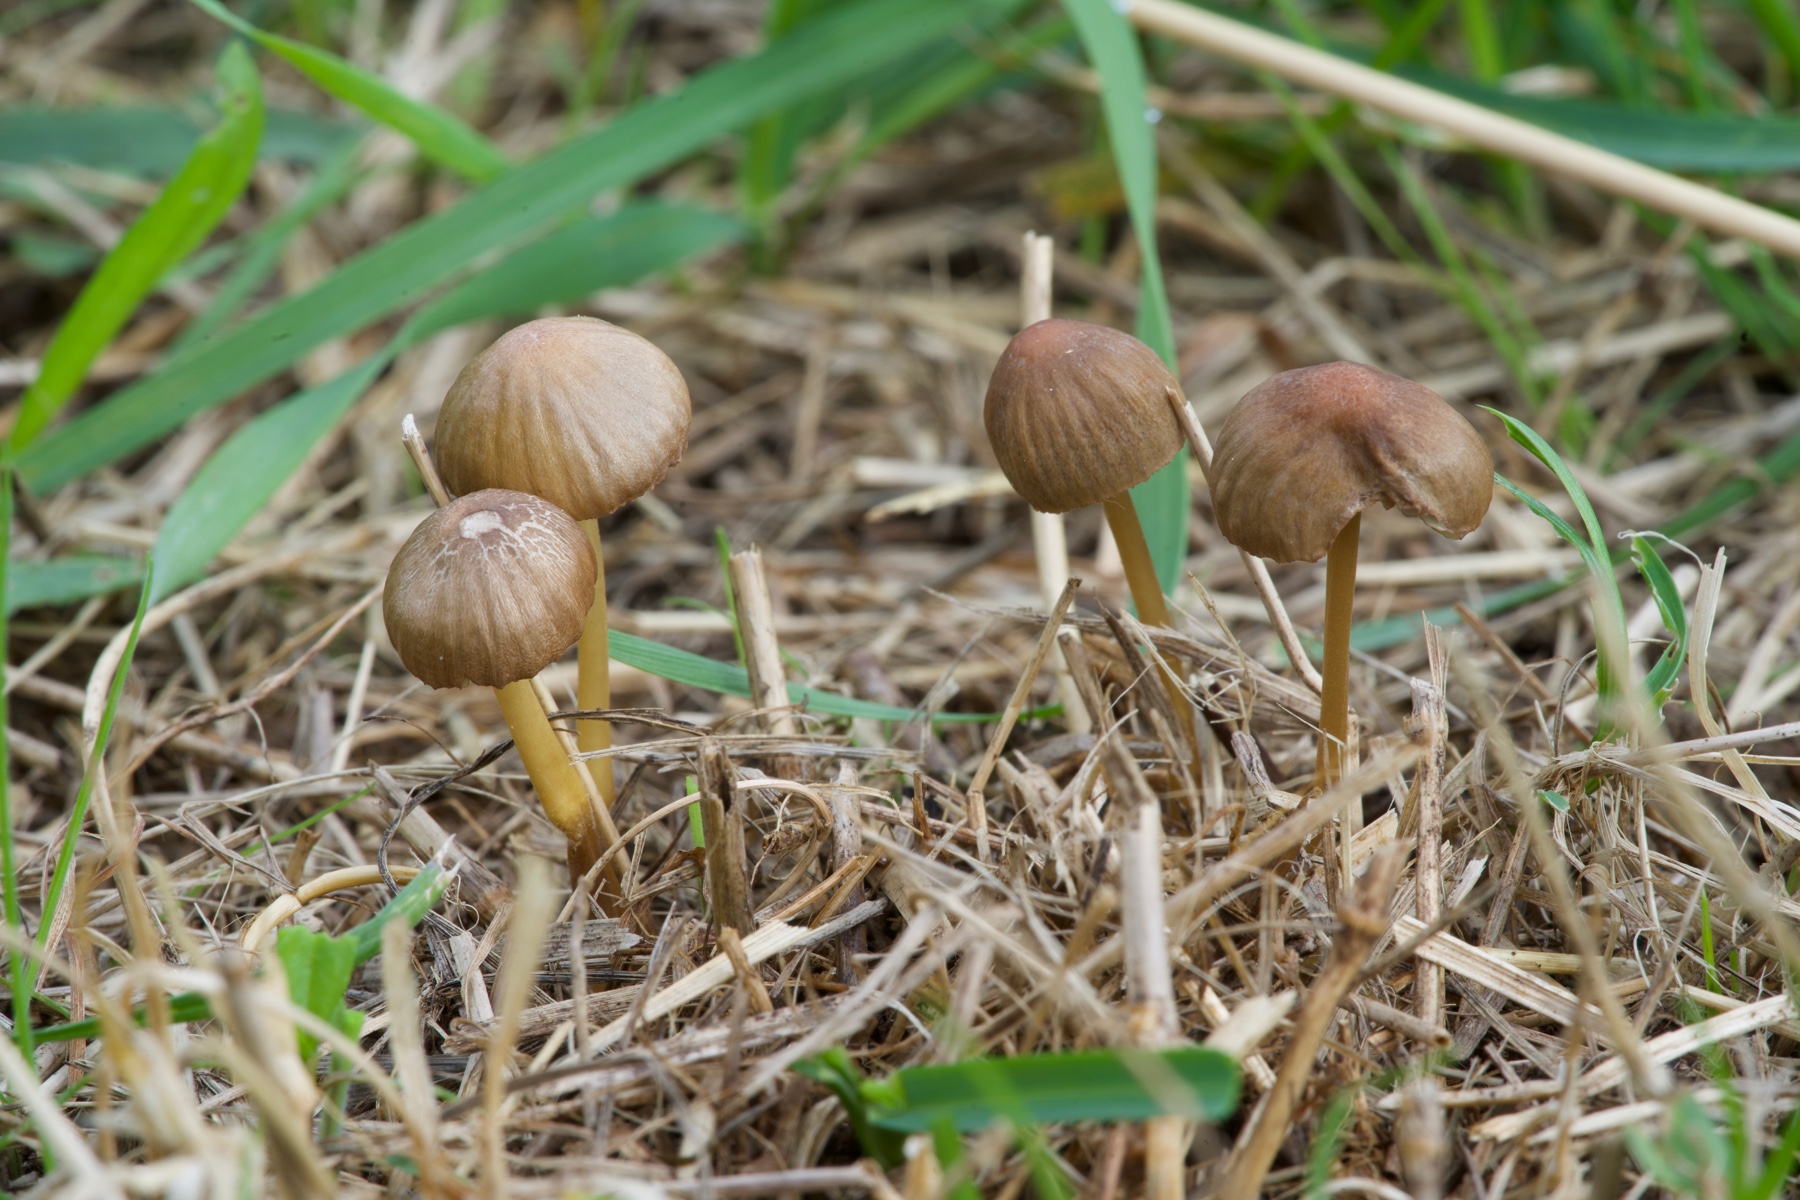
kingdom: Fungi
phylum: Basidiomycota
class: Agaricomycetes
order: Agaricales
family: Mycenaceae
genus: Mycena
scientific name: Mycena olivaceomarginata
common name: brunægget huesvamp
